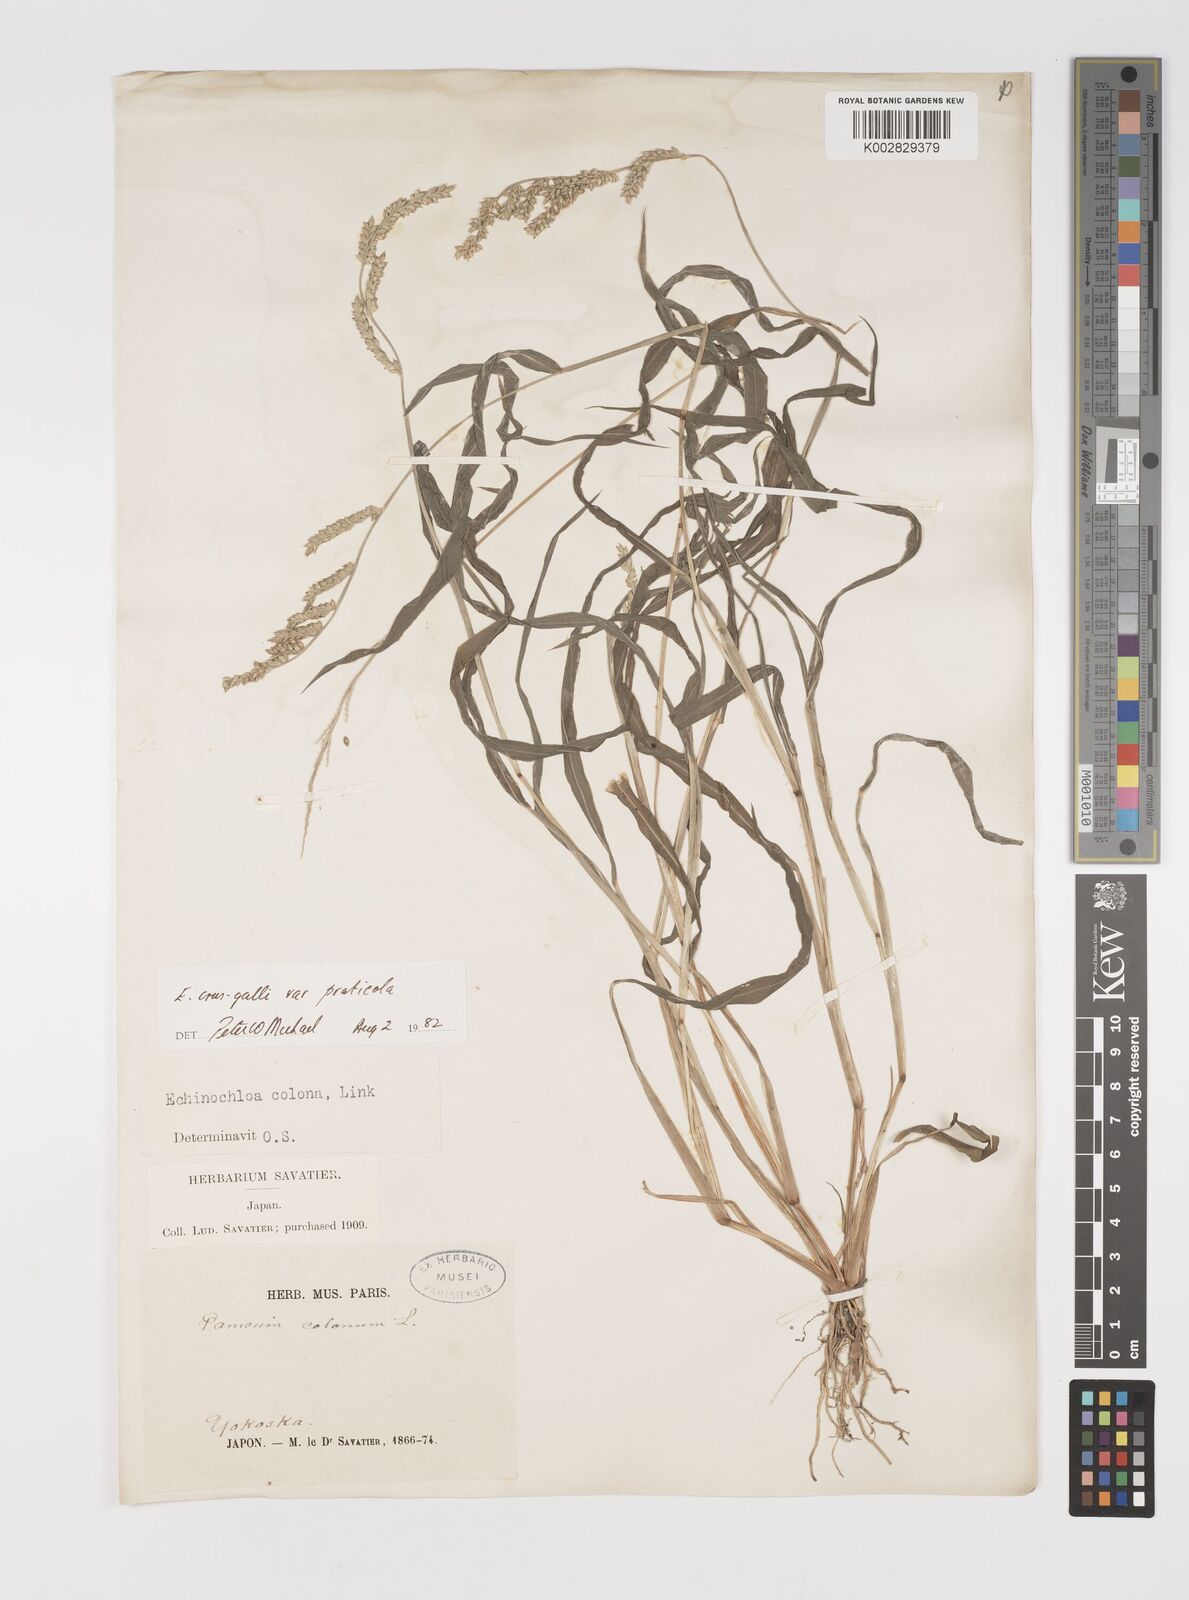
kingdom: Plantae
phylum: Tracheophyta
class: Liliopsida
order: Poales
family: Poaceae
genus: Echinochloa
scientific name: Echinochloa crus-galli
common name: Cockspur
